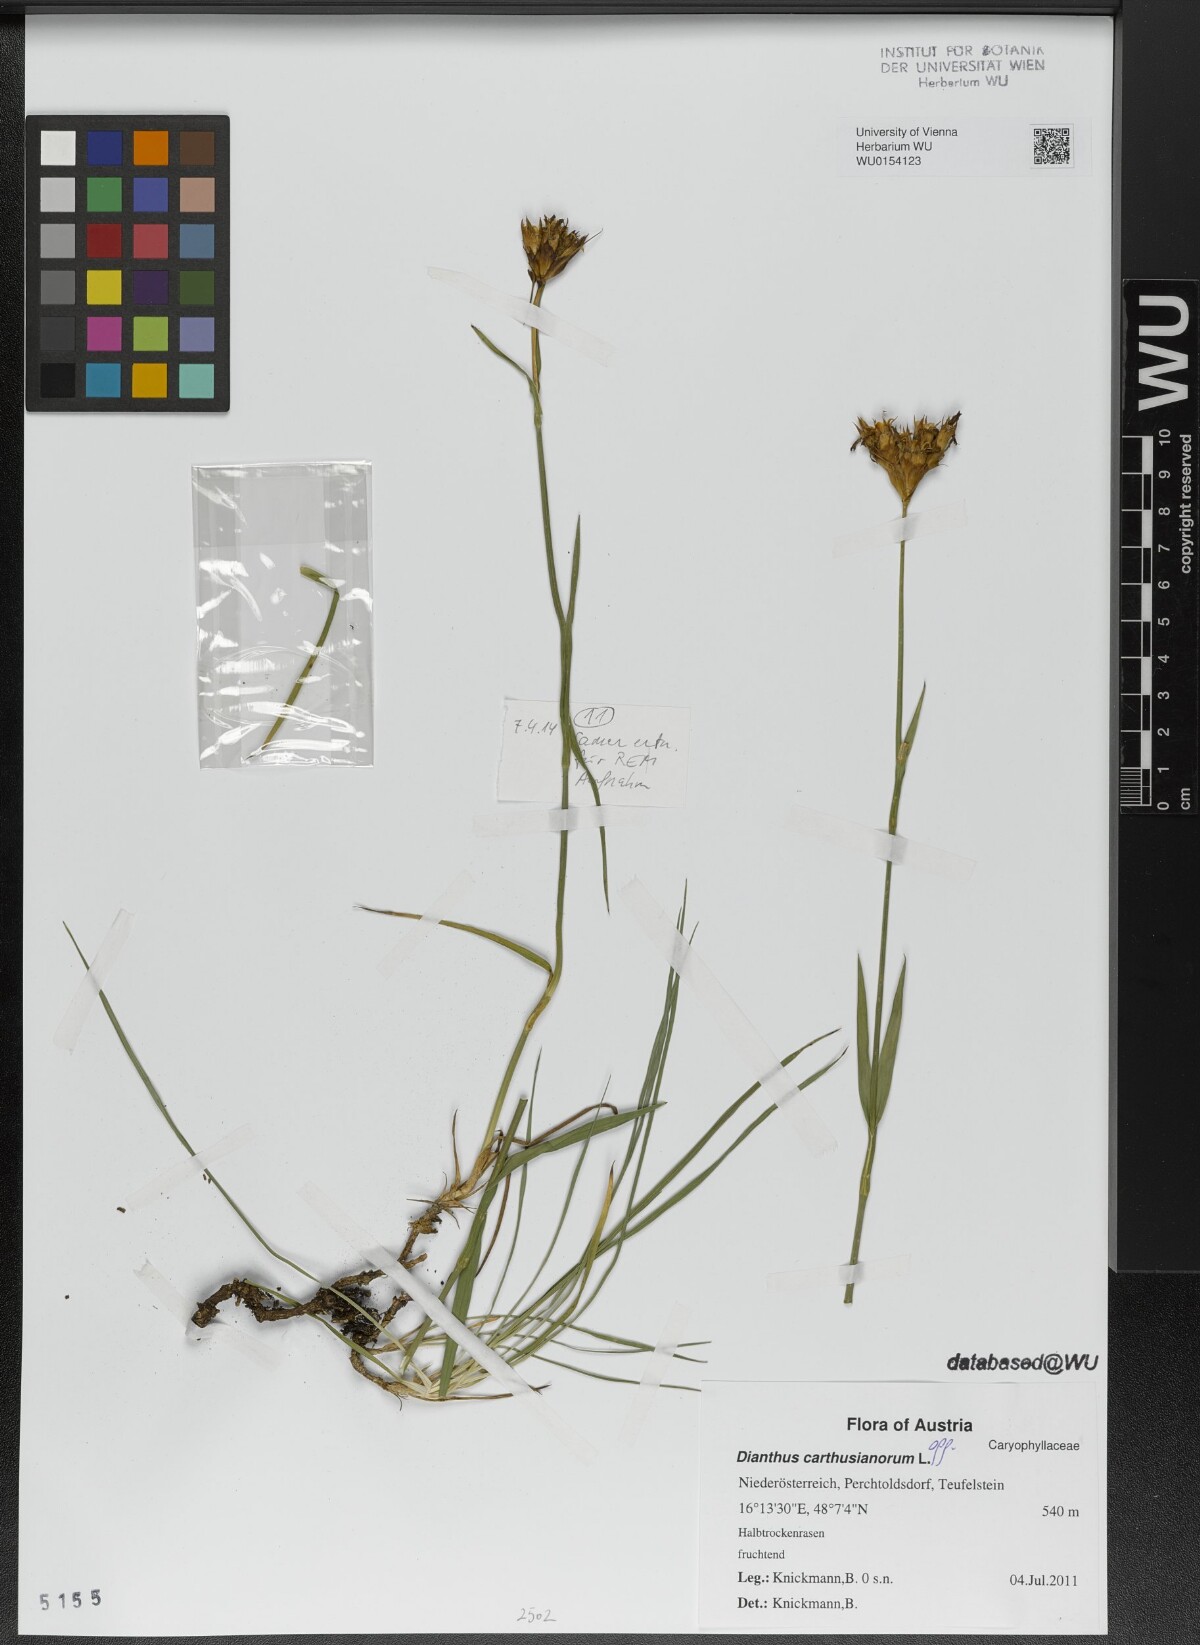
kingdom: Plantae
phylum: Tracheophyta
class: Magnoliopsida
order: Caryophyllales
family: Caryophyllaceae
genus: Dianthus
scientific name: Dianthus carthusianorum
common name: Carthusian pink
